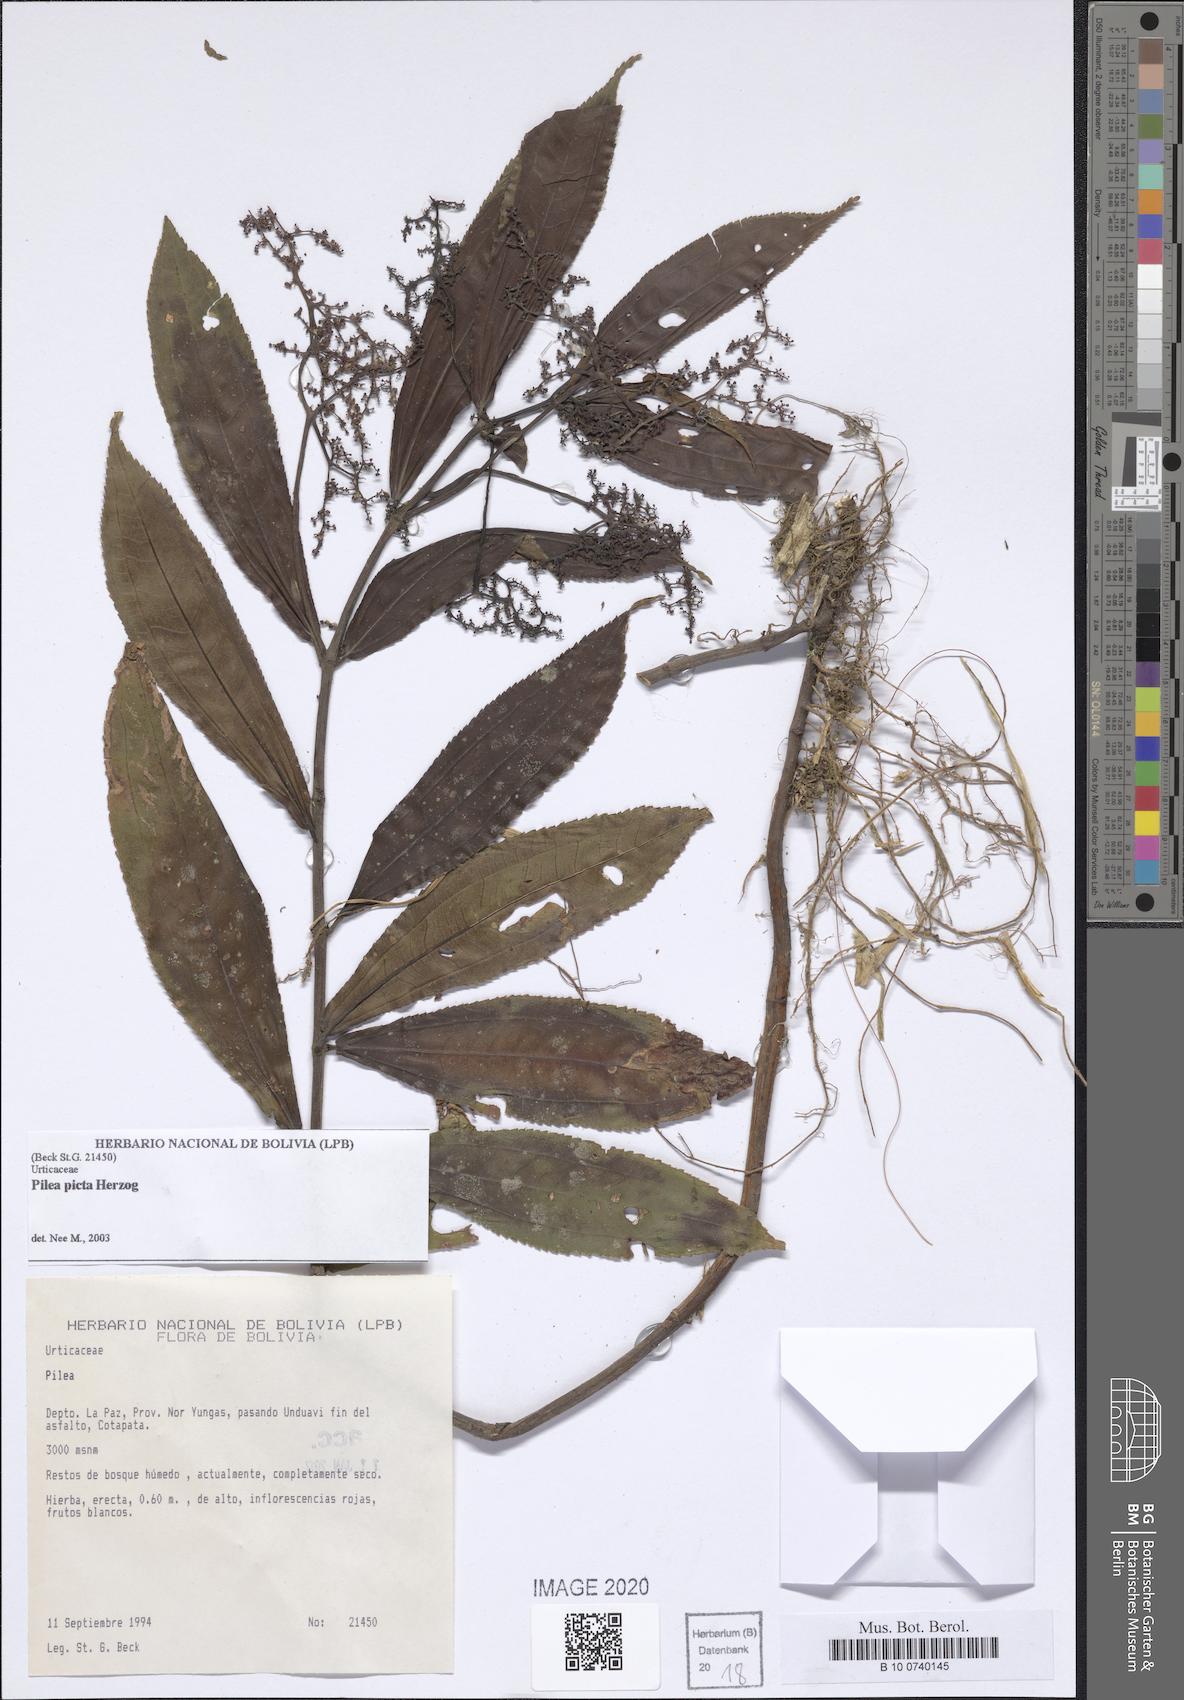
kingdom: Plantae
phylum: Tracheophyta
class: Magnoliopsida
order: Rosales
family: Urticaceae
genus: Pilea
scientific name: Pilea picta
